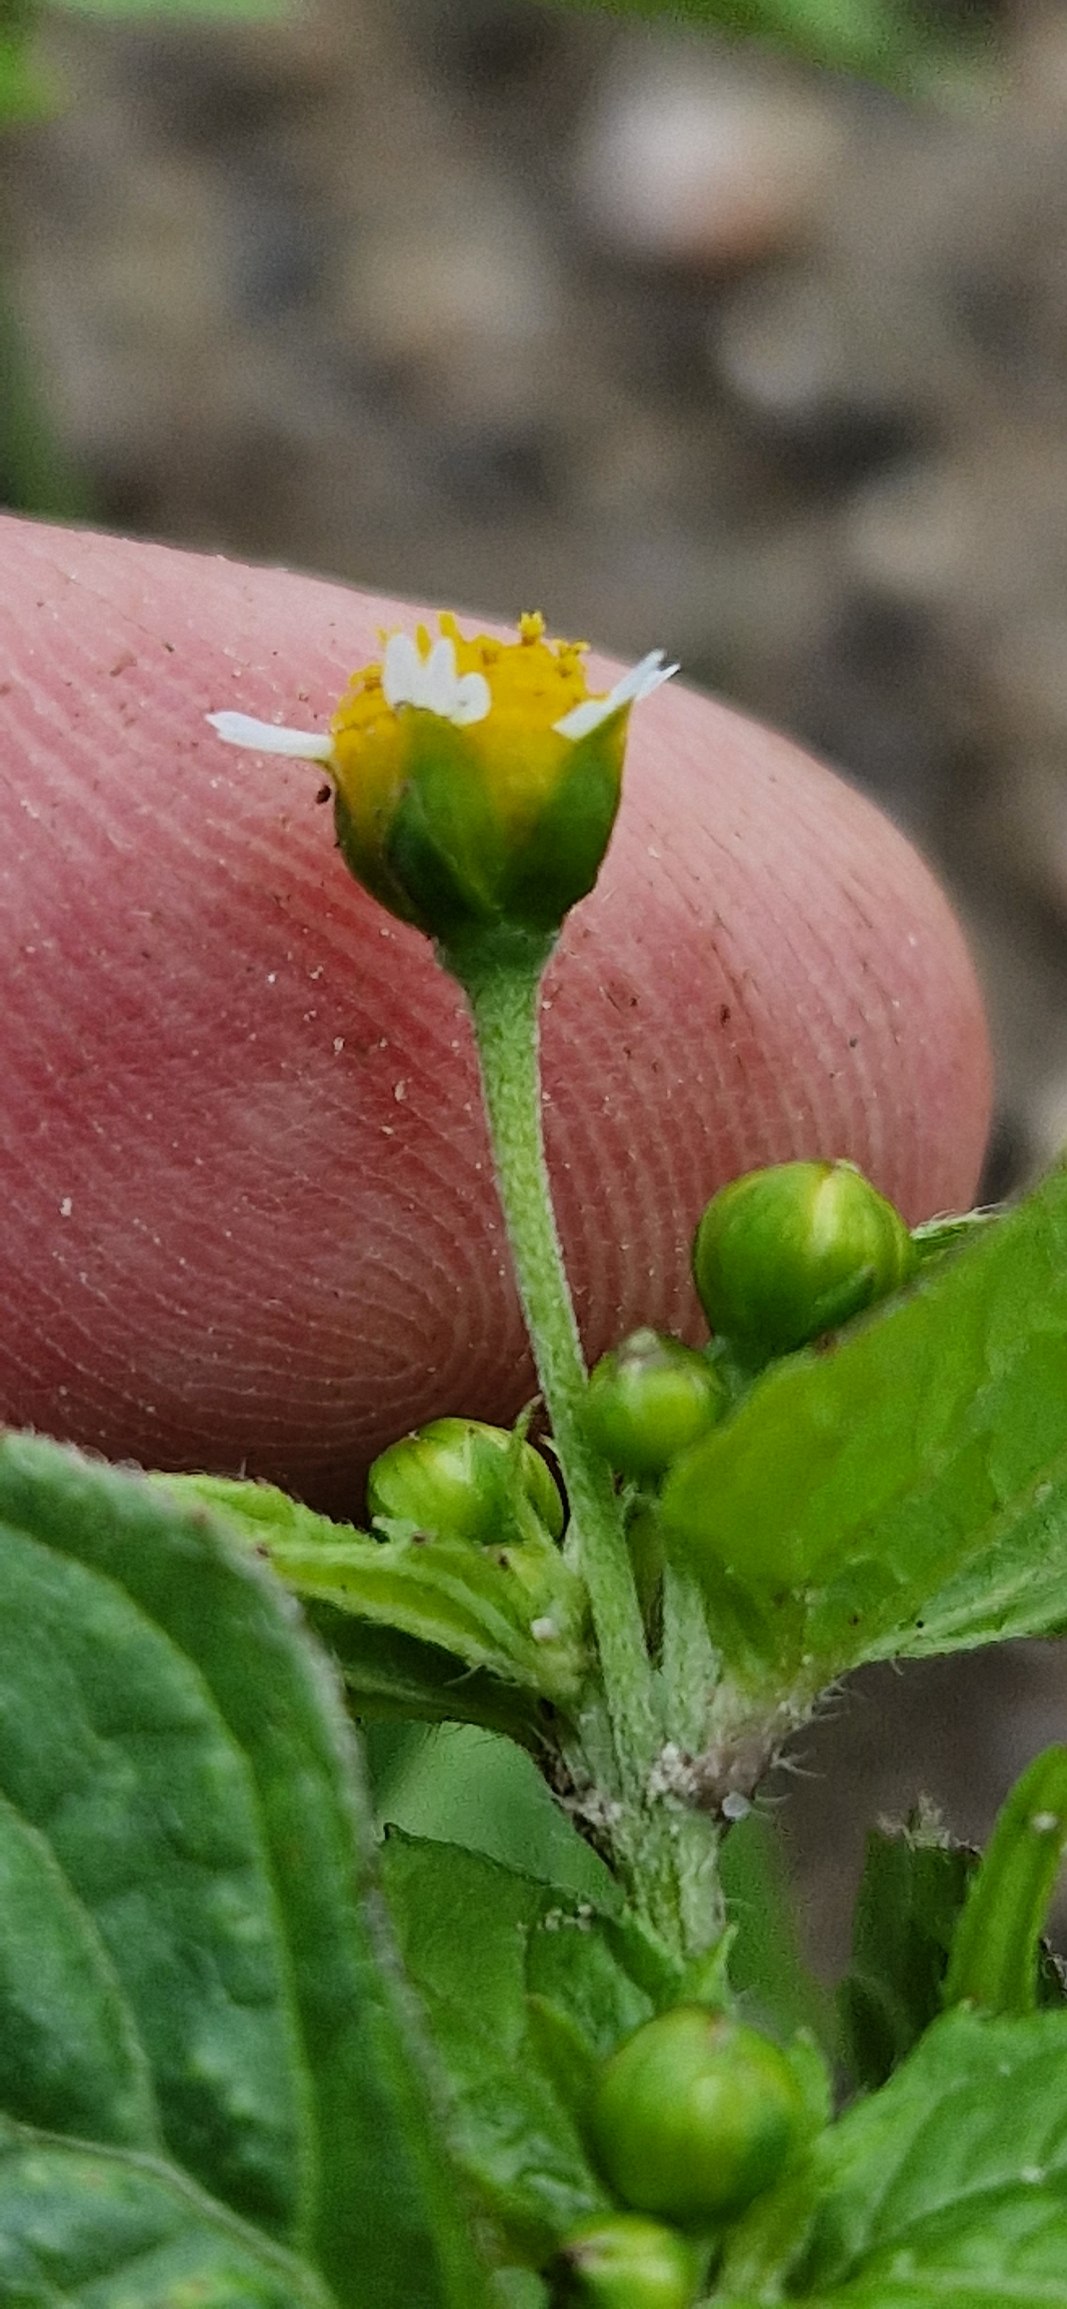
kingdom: Plantae
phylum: Tracheophyta
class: Magnoliopsida
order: Asterales
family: Asteraceae
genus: Galinsoga
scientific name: Galinsoga parviflora
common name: Håret kortstråle
